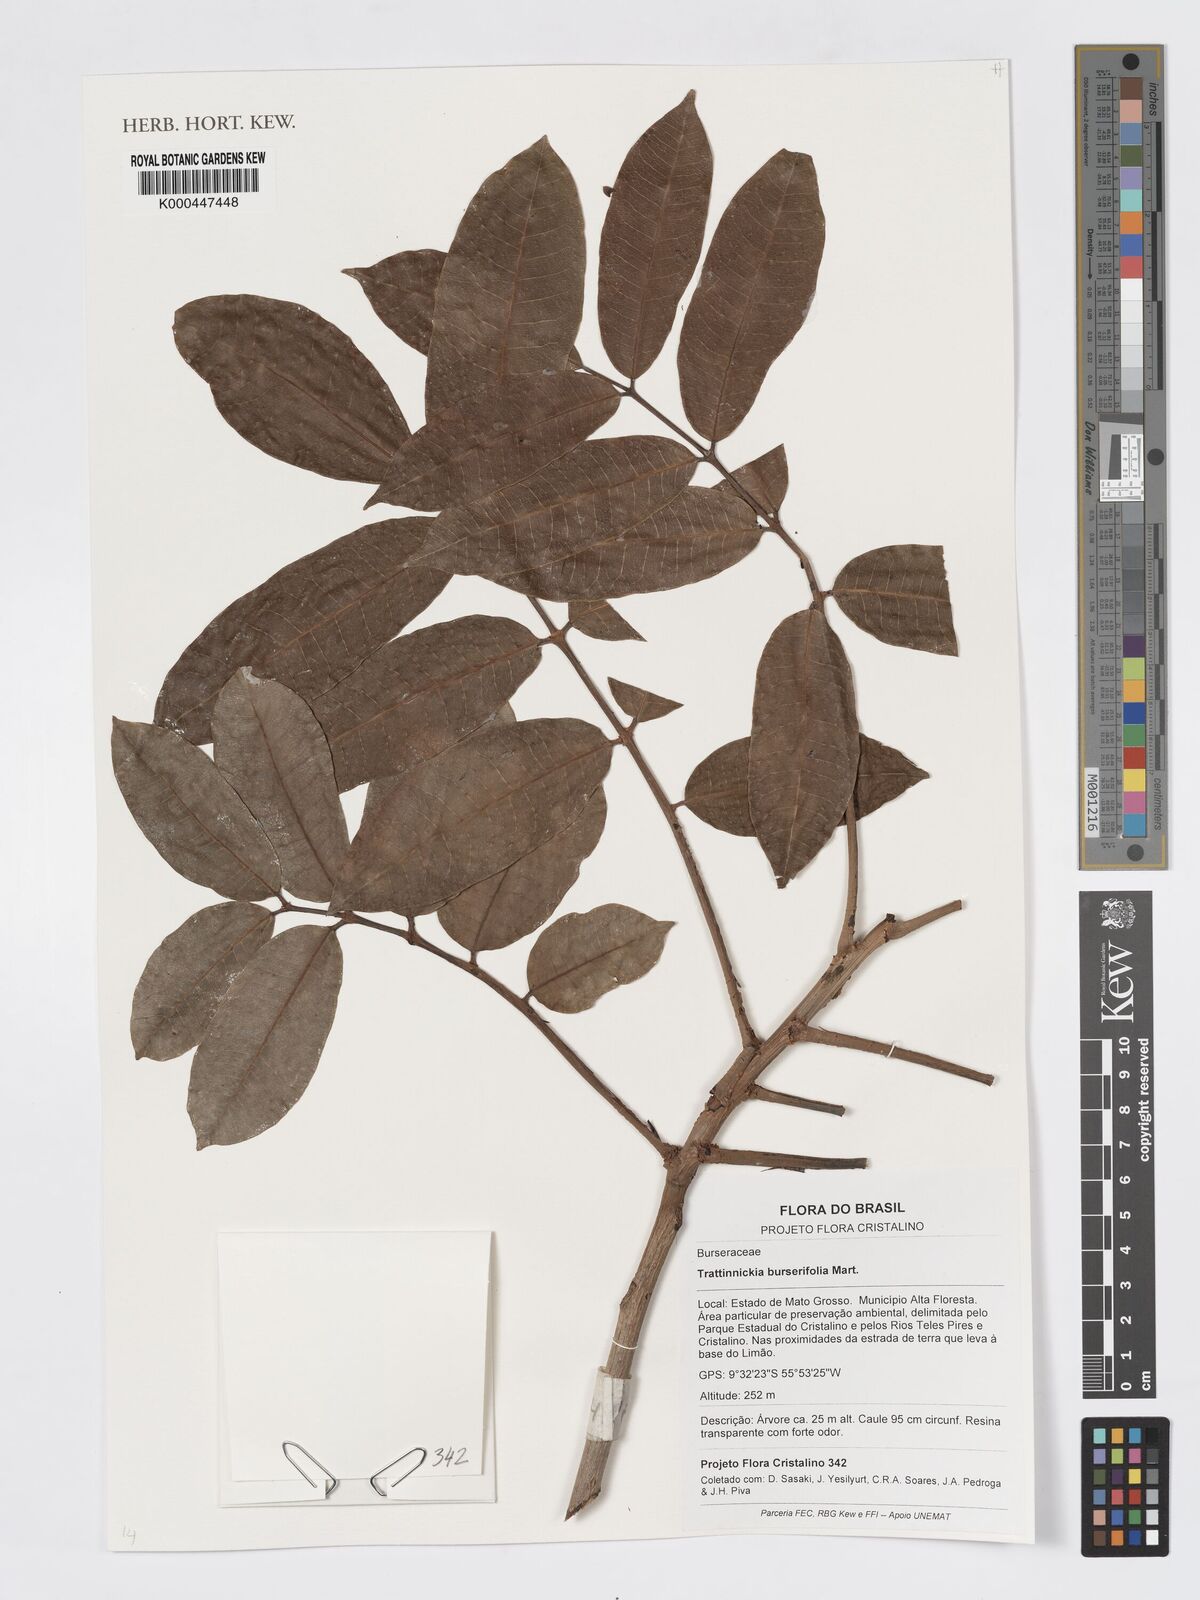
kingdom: Plantae
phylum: Tracheophyta
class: Magnoliopsida
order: Sapindales
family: Burseraceae
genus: Trattinnickia
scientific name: Trattinnickia burserifolia
